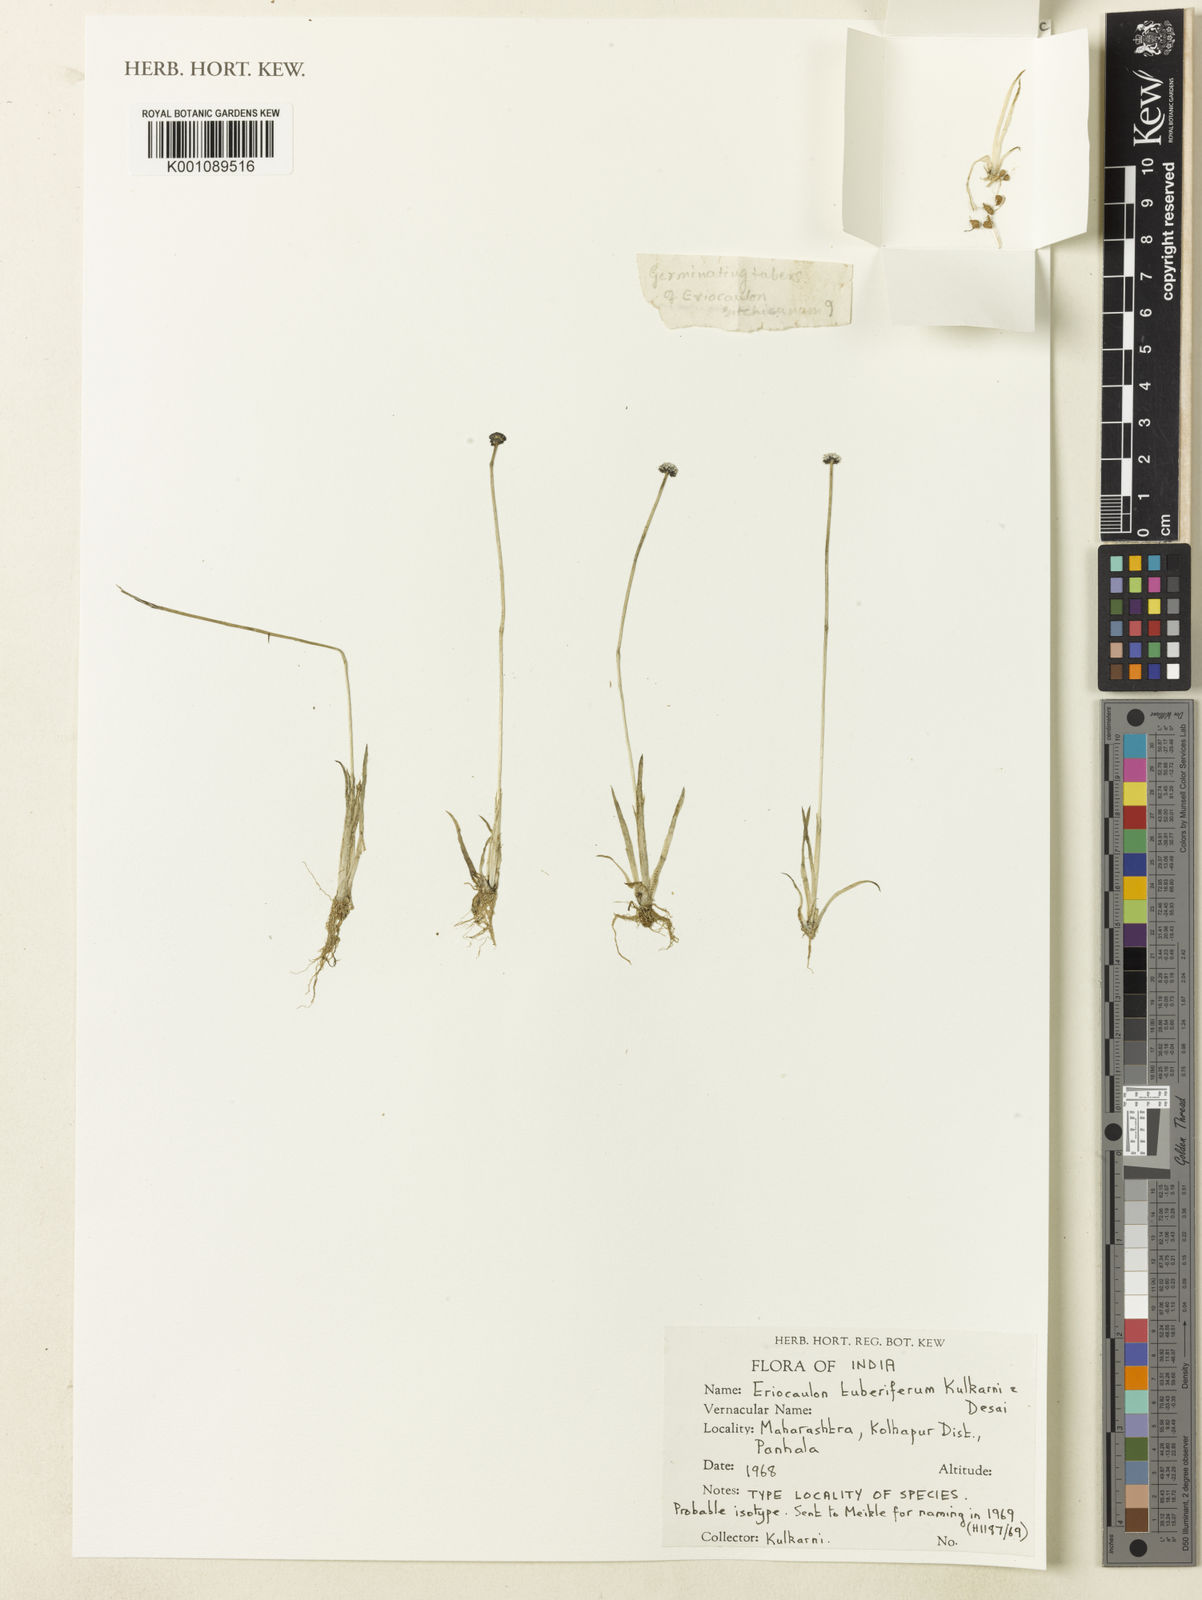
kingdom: Plantae
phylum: Tracheophyta
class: Liliopsida
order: Poales
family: Eriocaulaceae
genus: Eriocaulon
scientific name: Eriocaulon tuberiferum
